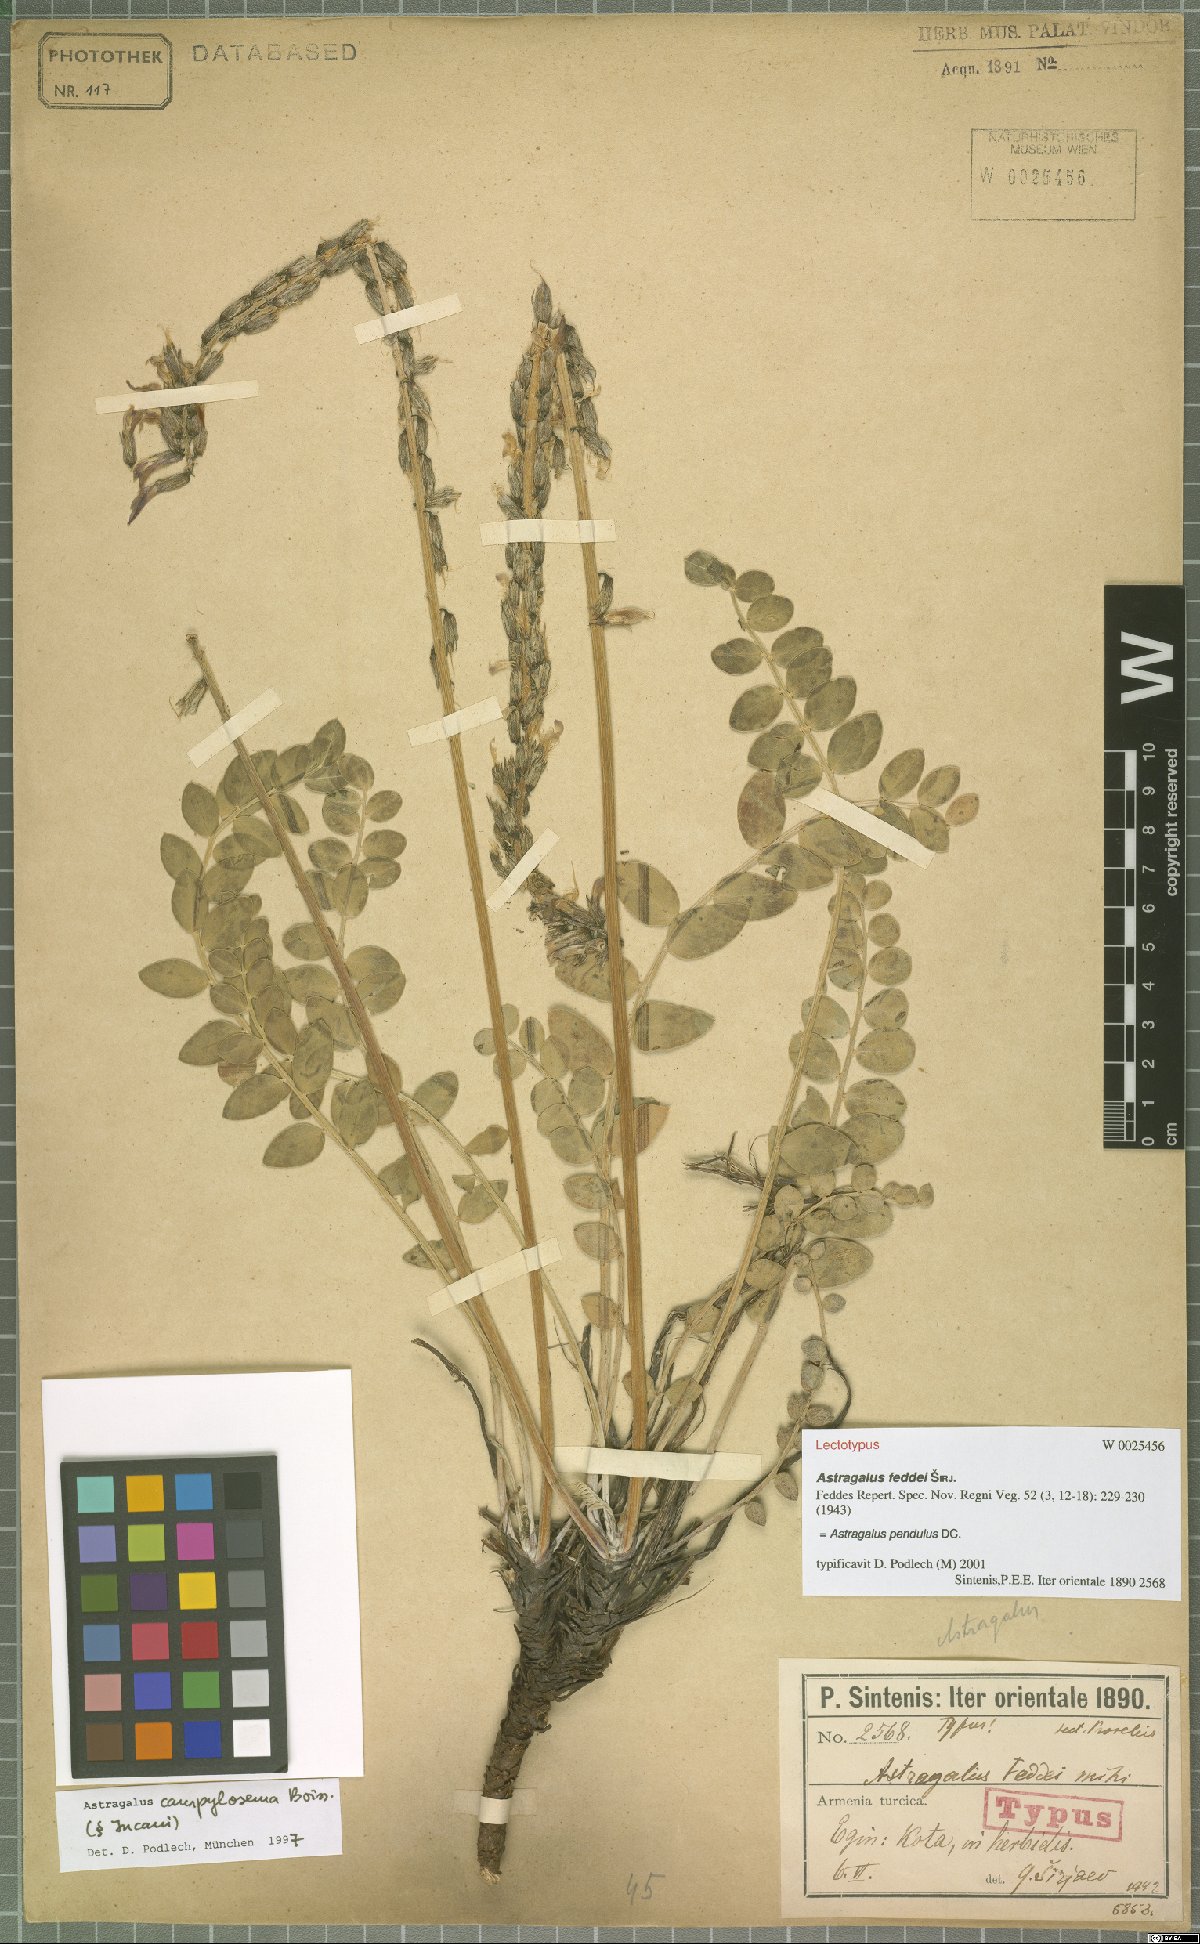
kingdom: Plantae
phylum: Tracheophyta
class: Magnoliopsida
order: Fabales
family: Fabaceae
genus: Astragalus
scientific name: Astragalus pendulus
